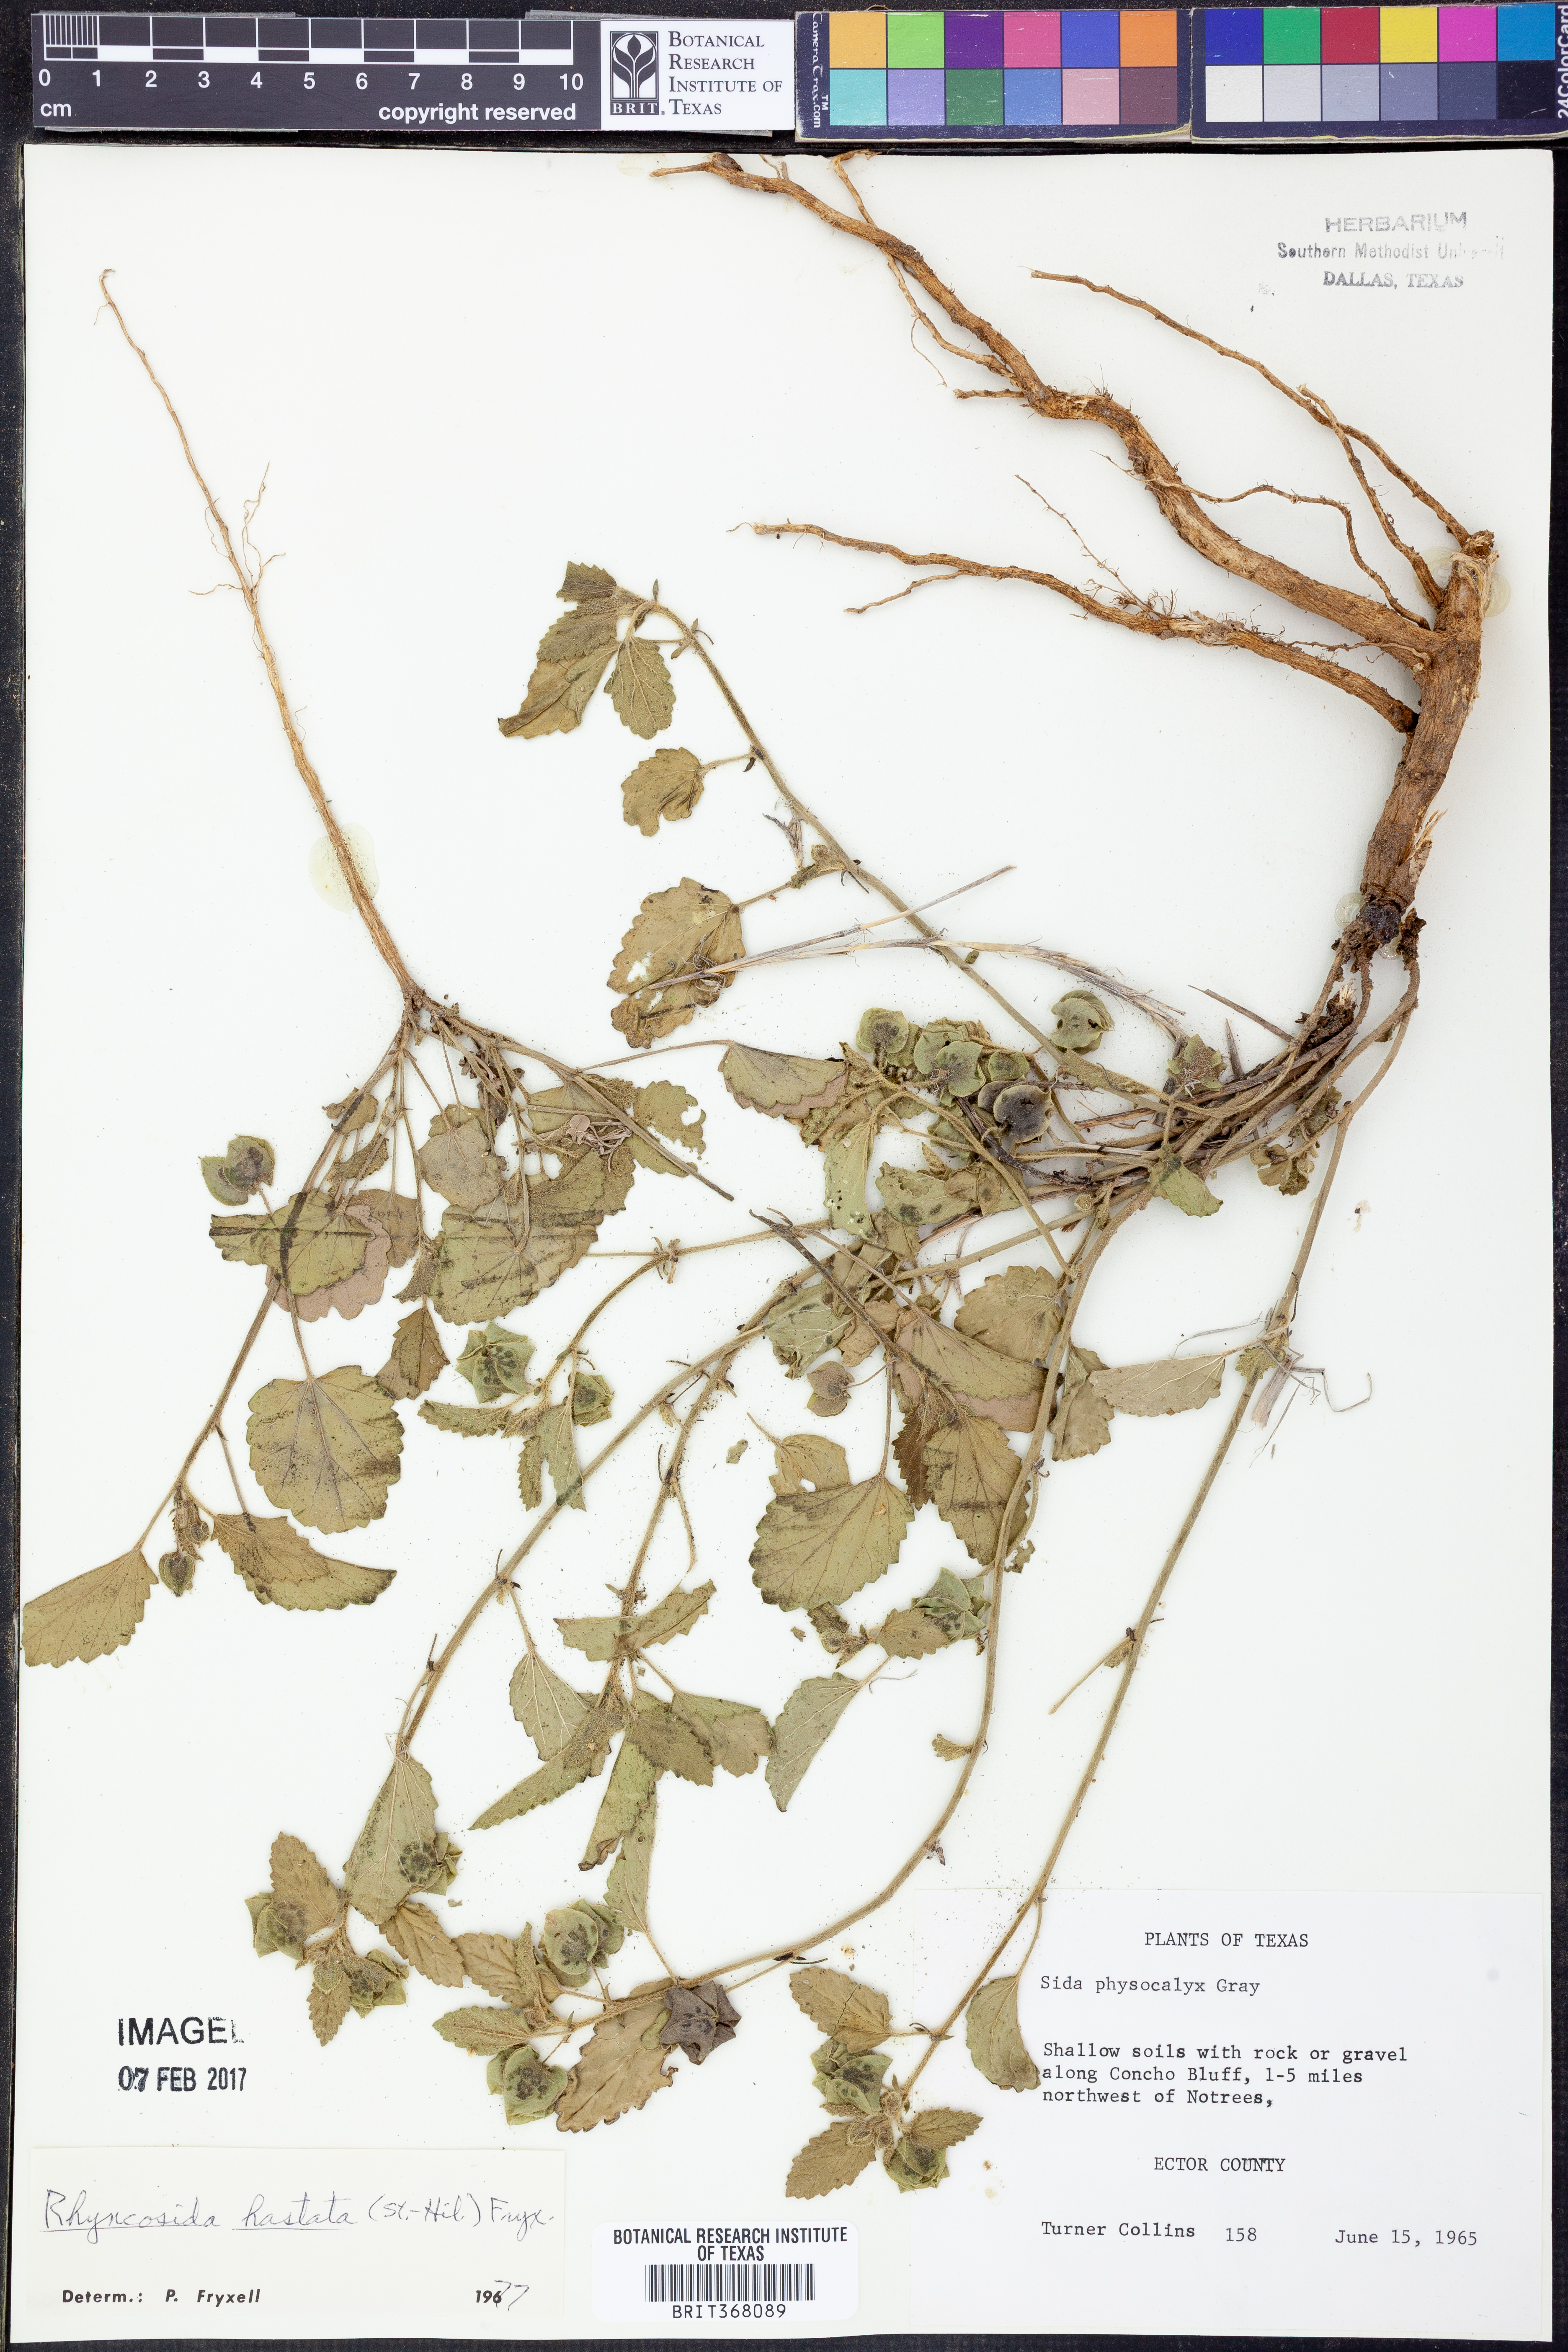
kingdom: Plantae
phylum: Tracheophyta
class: Magnoliopsida
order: Malvales
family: Malvaceae
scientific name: Malvaceae
